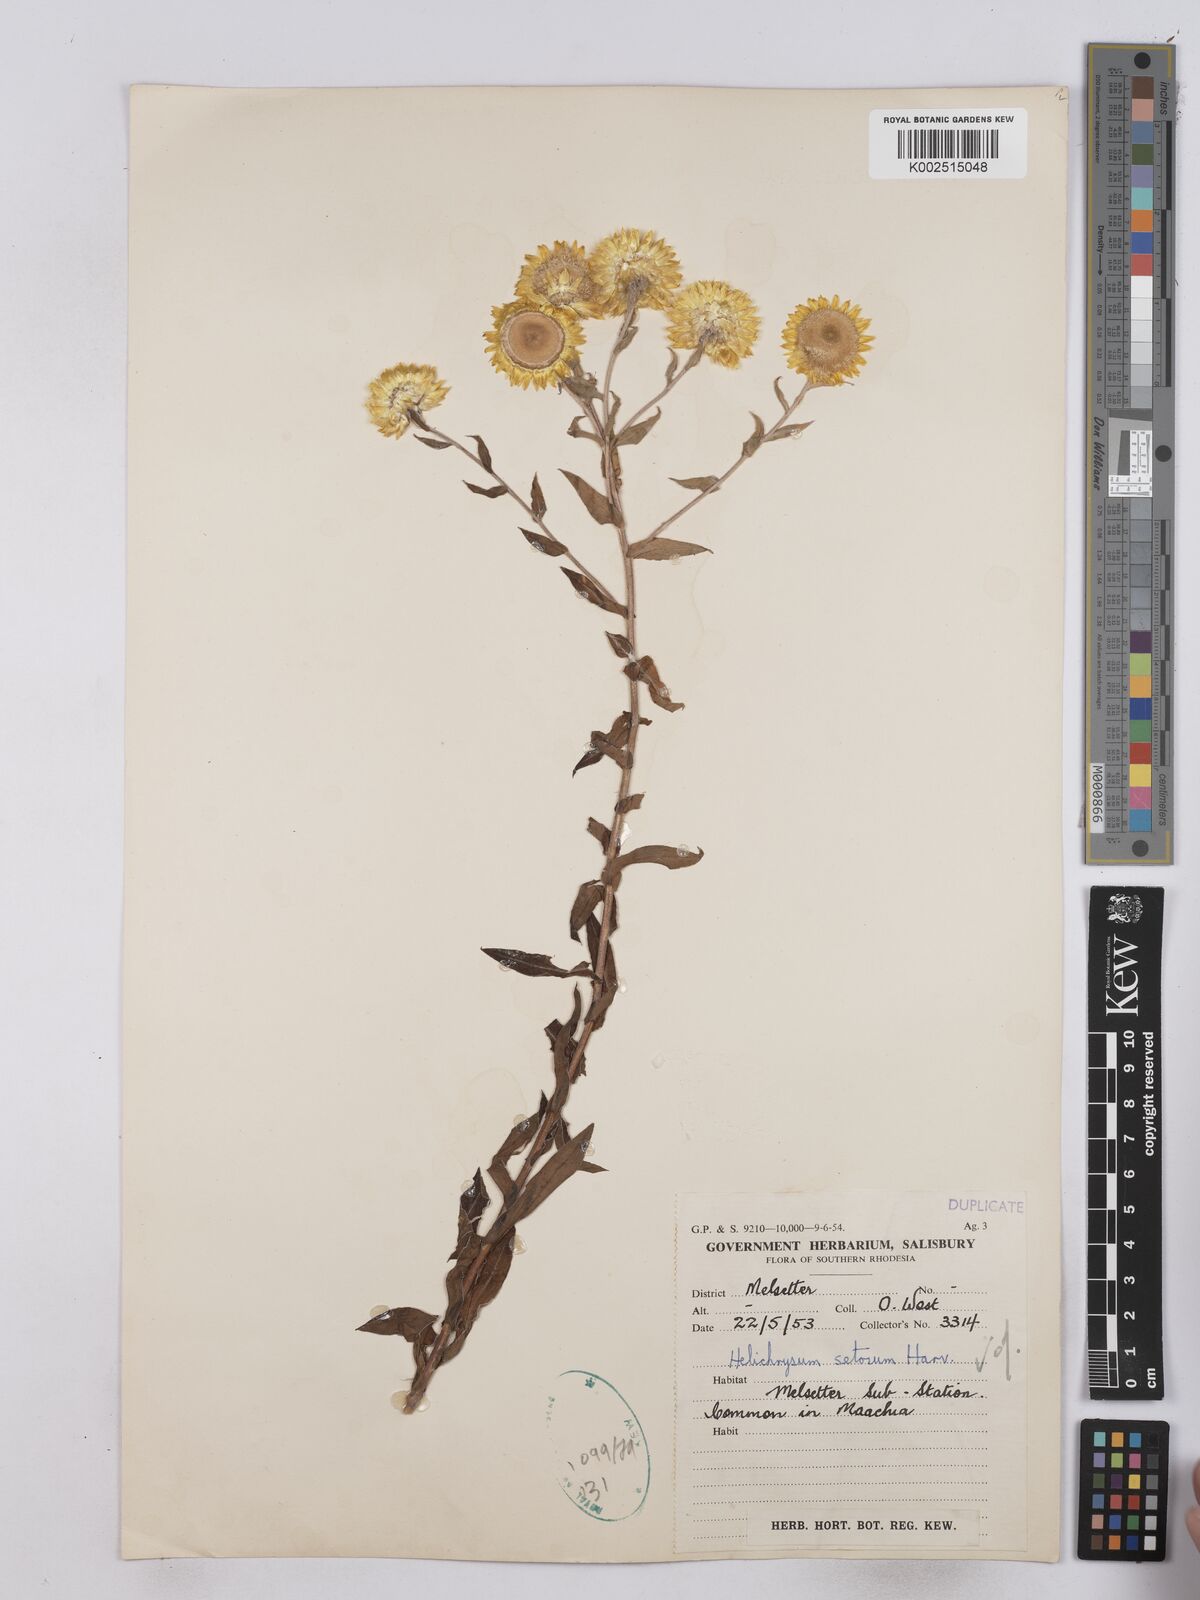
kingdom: Plantae
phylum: Tracheophyta
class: Magnoliopsida
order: Asterales
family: Asteraceae
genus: Helichrysum
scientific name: Helichrysum setosum
